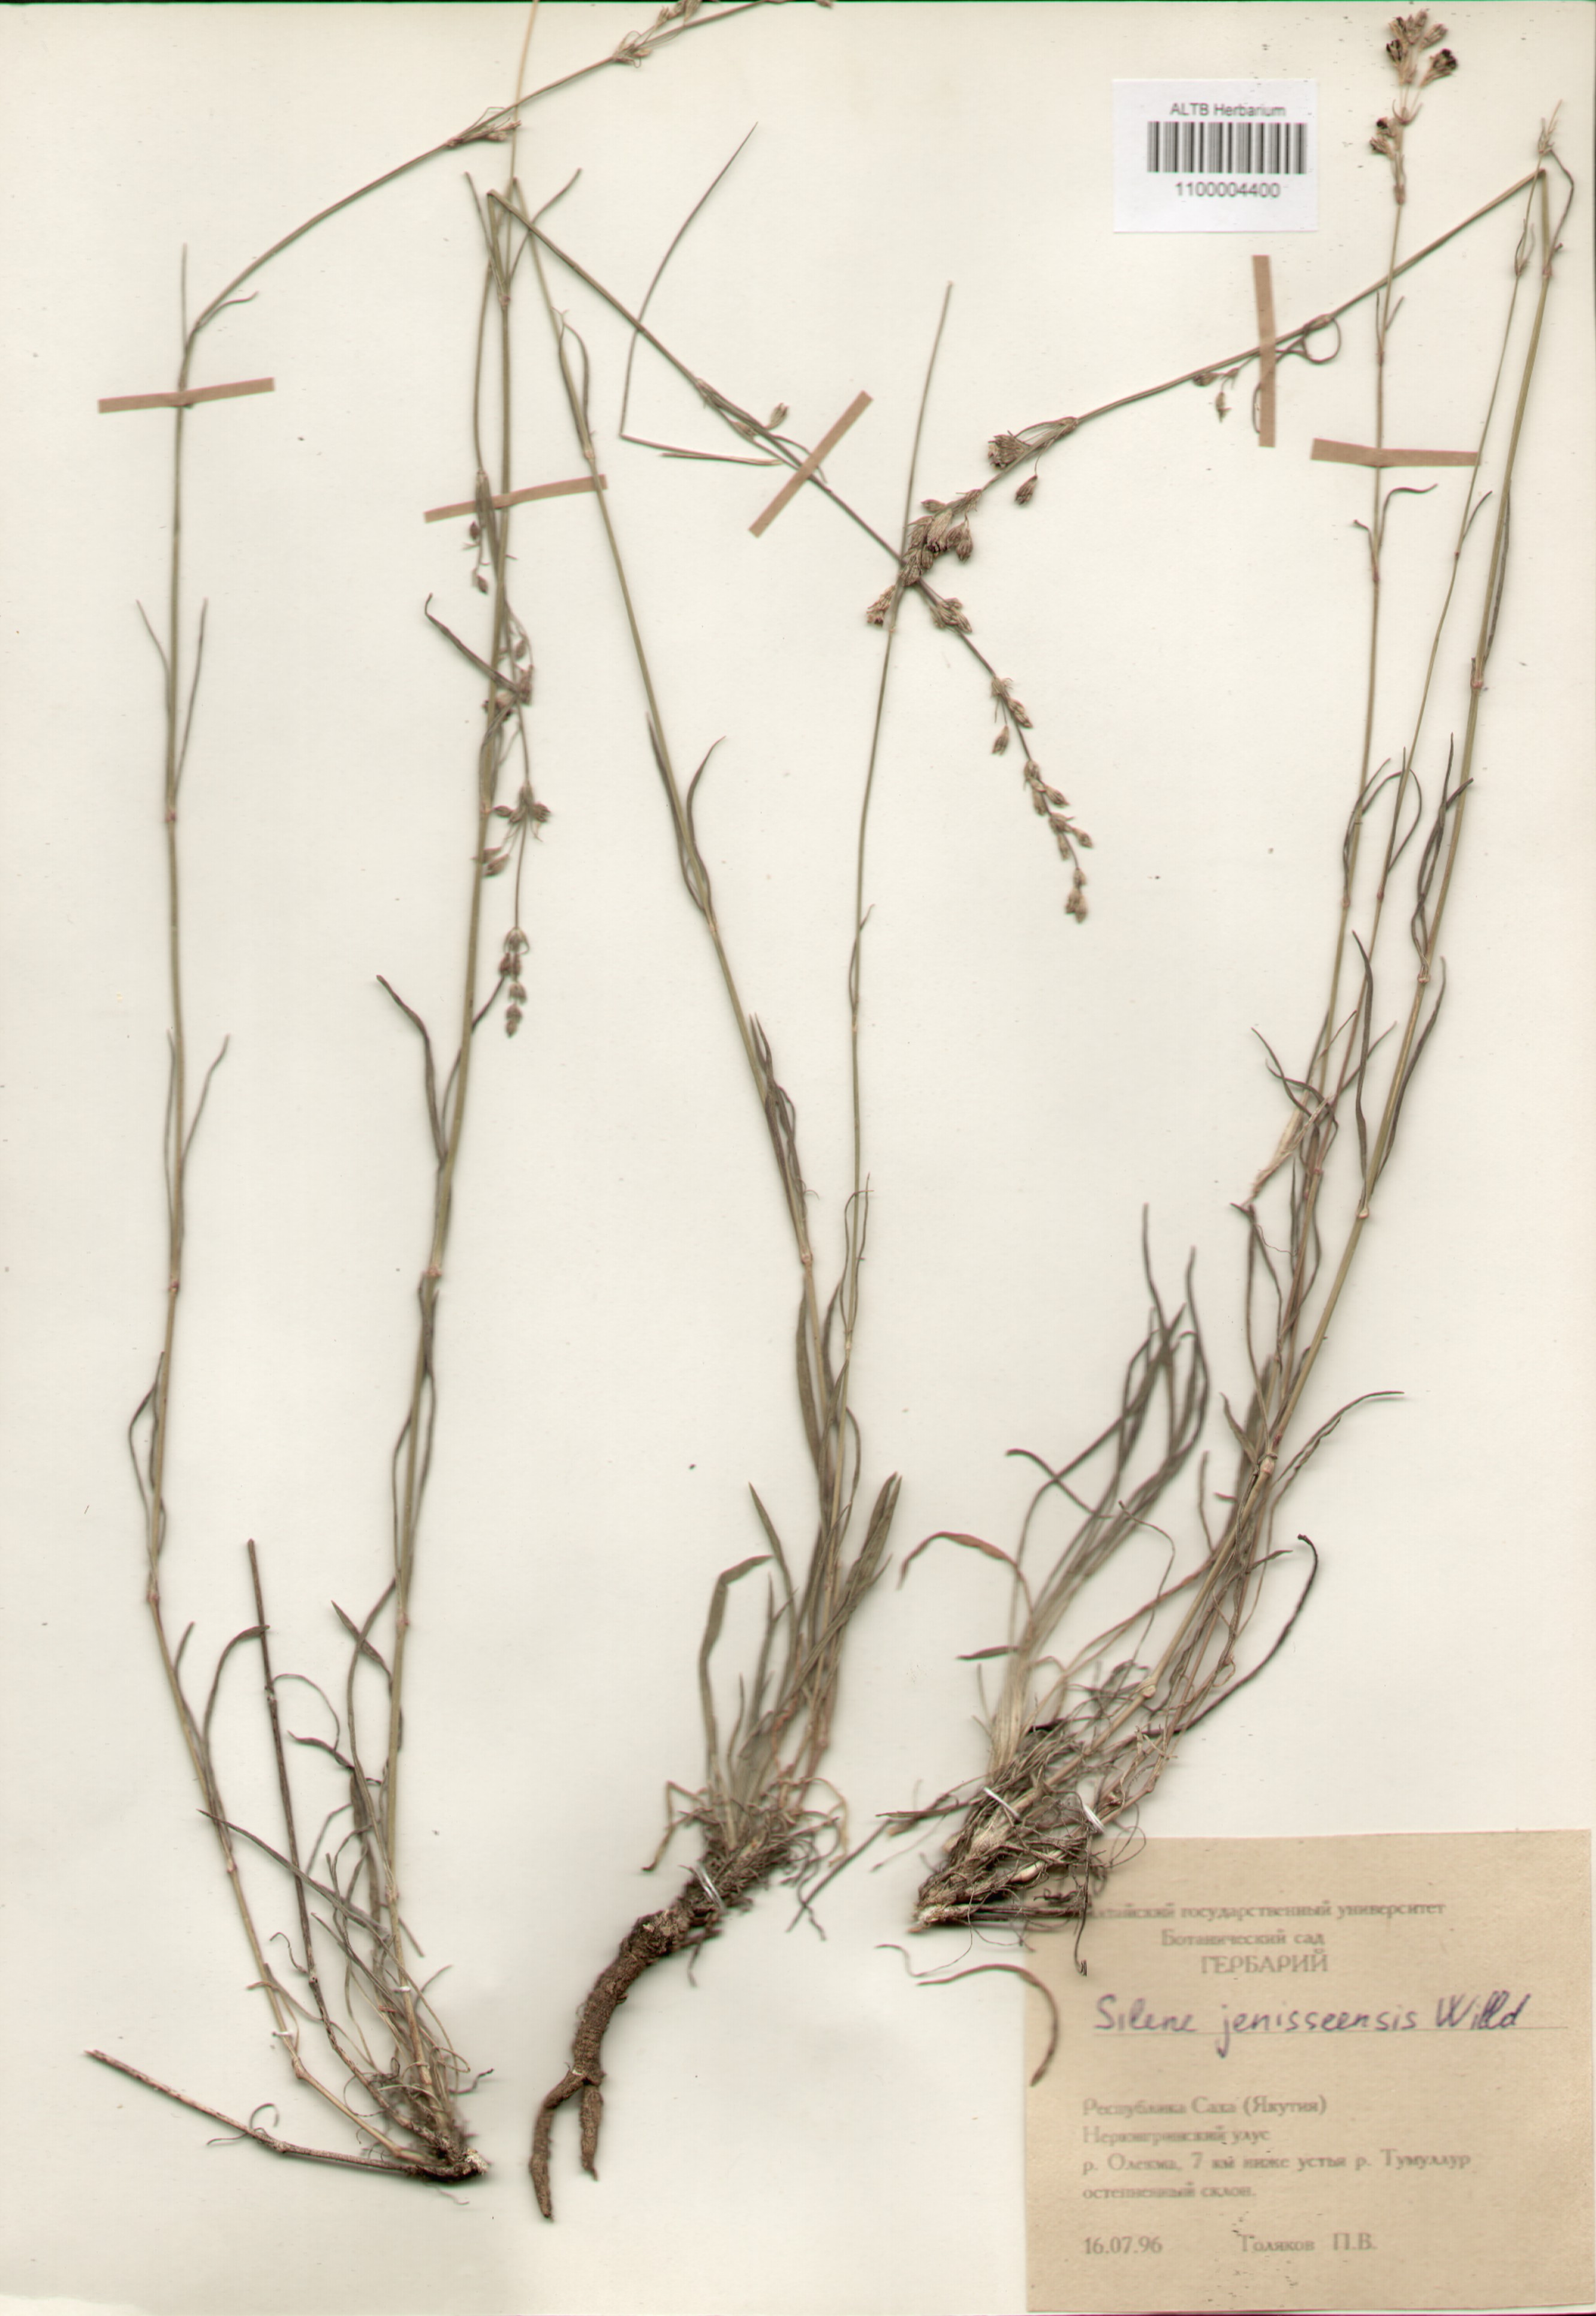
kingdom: Plantae
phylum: Tracheophyta
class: Magnoliopsida
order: Caryophyllales
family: Caryophyllaceae
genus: Silene
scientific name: Silene jeniseensis
